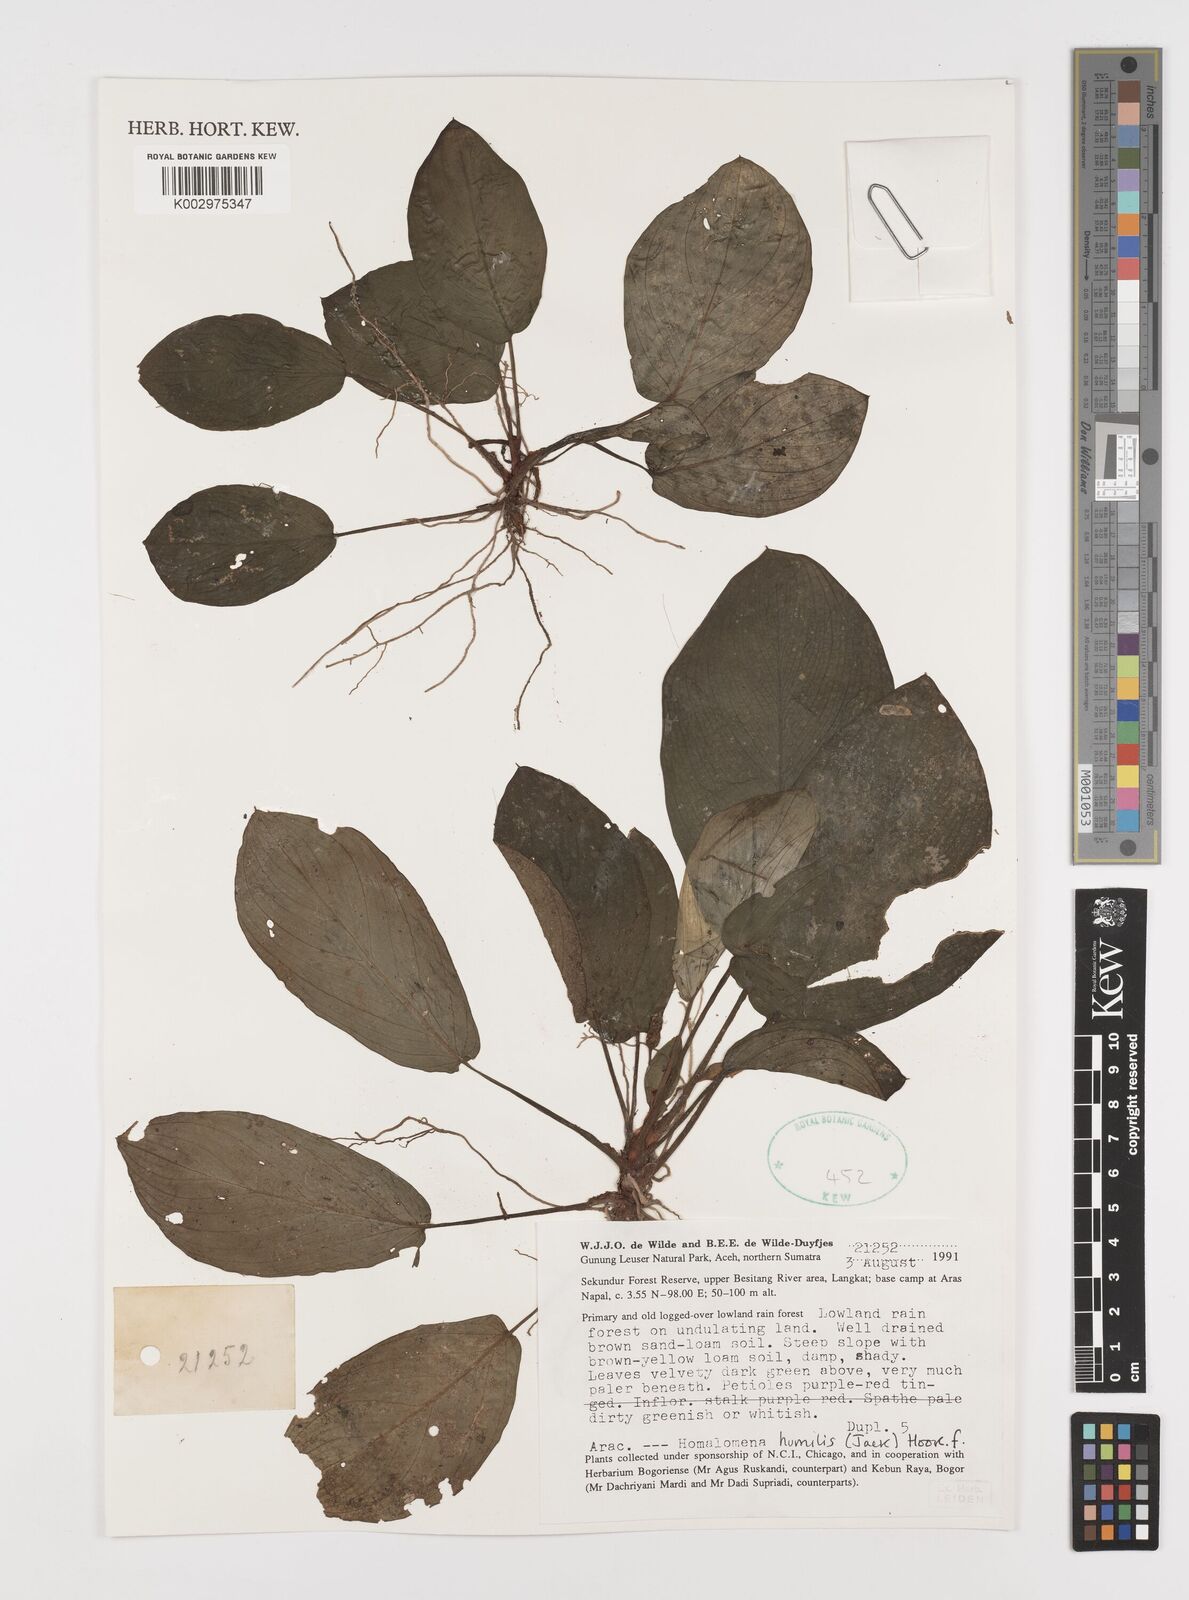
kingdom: Plantae
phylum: Tracheophyta
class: Liliopsida
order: Alismatales
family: Araceae
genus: Homalomena
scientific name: Homalomena humilis
